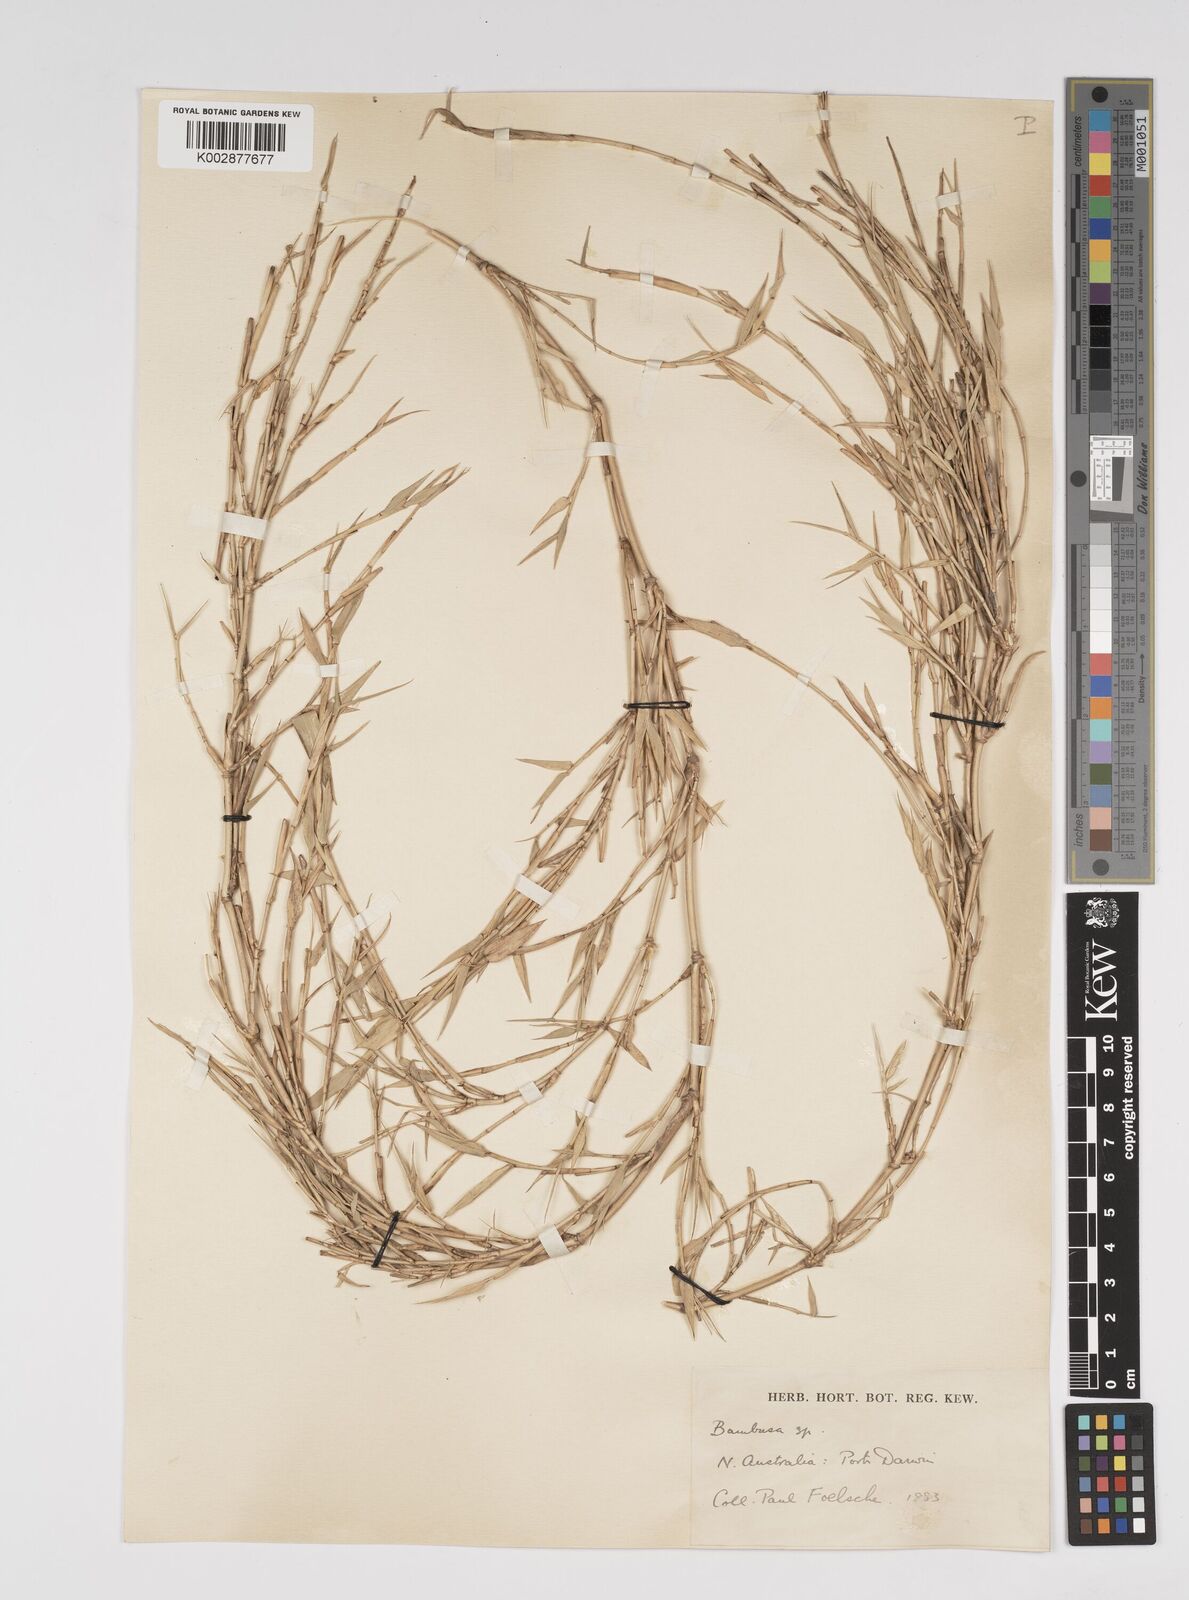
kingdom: Plantae
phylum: Tracheophyta
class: Liliopsida
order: Poales
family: Poaceae
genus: Bambusa
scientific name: Bambusa
